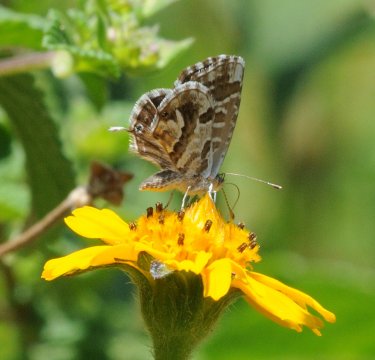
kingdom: Animalia
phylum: Arthropoda
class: Insecta
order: Lepidoptera
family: Lycaenidae
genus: Cacyreus
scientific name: Cacyreus marshalli
